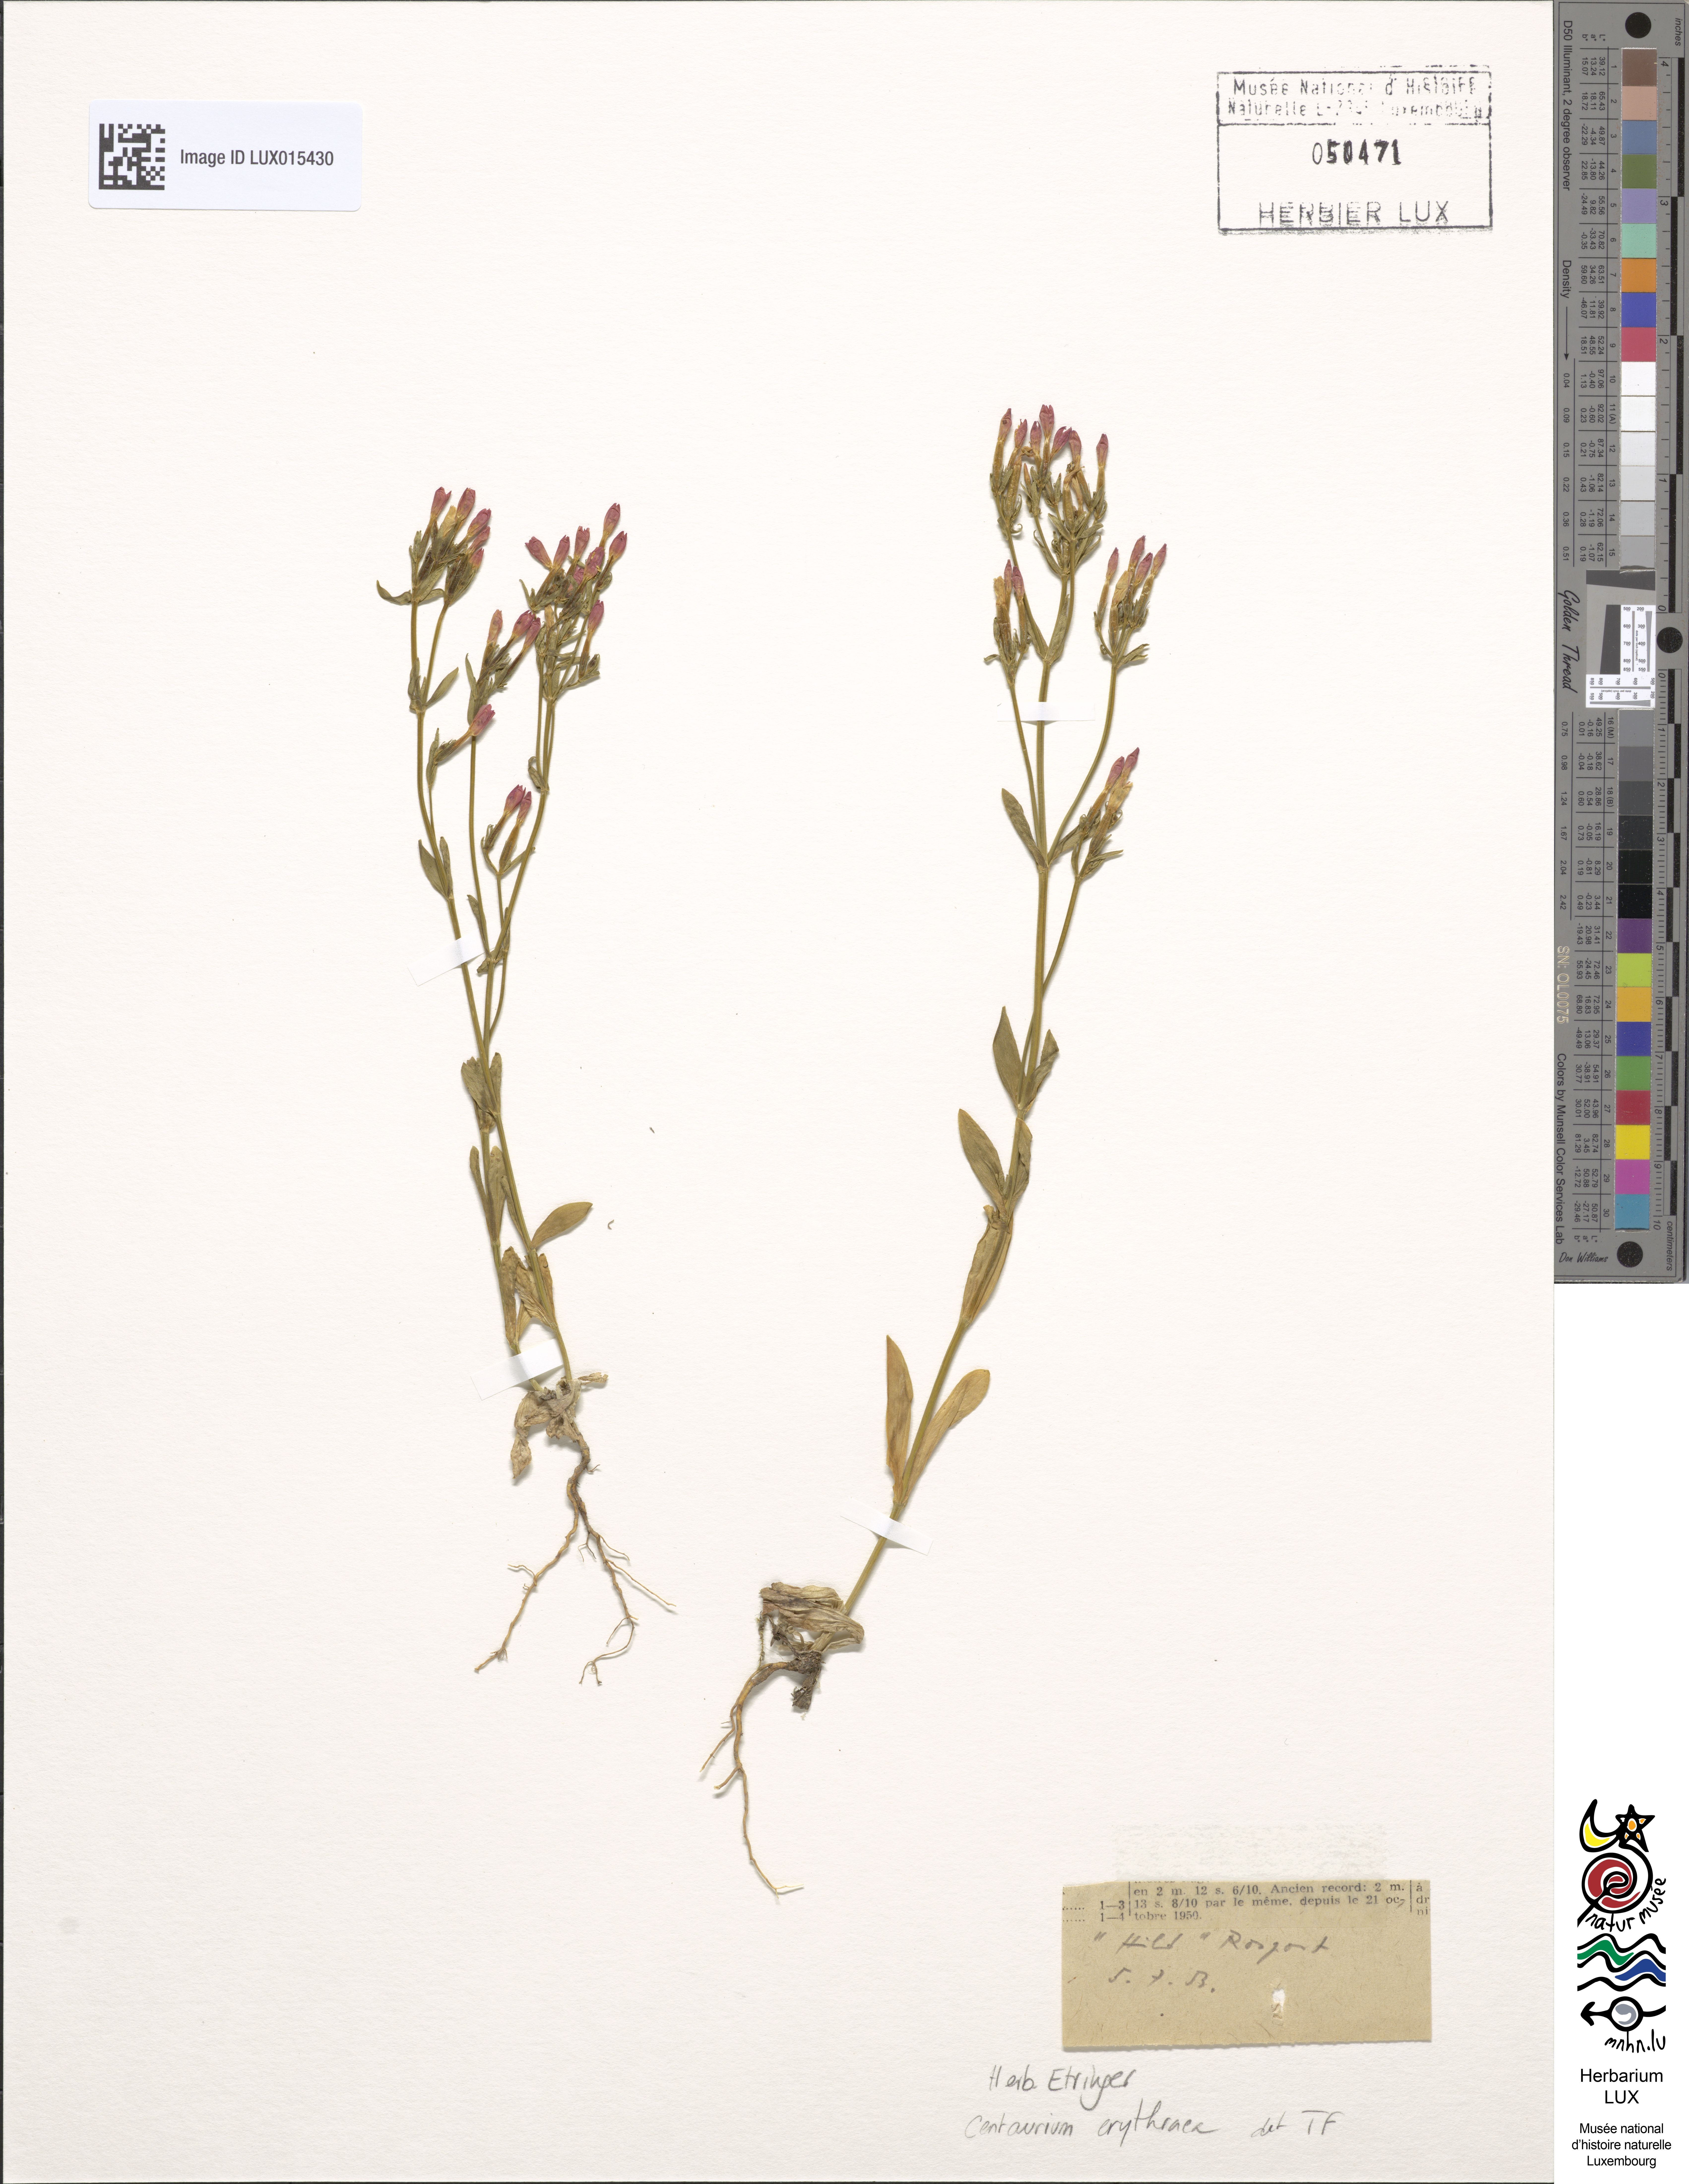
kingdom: Plantae
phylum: Tracheophyta
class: Magnoliopsida
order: Gentianales
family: Gentianaceae
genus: Centaurium
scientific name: Centaurium erythraea
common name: Common centaury
